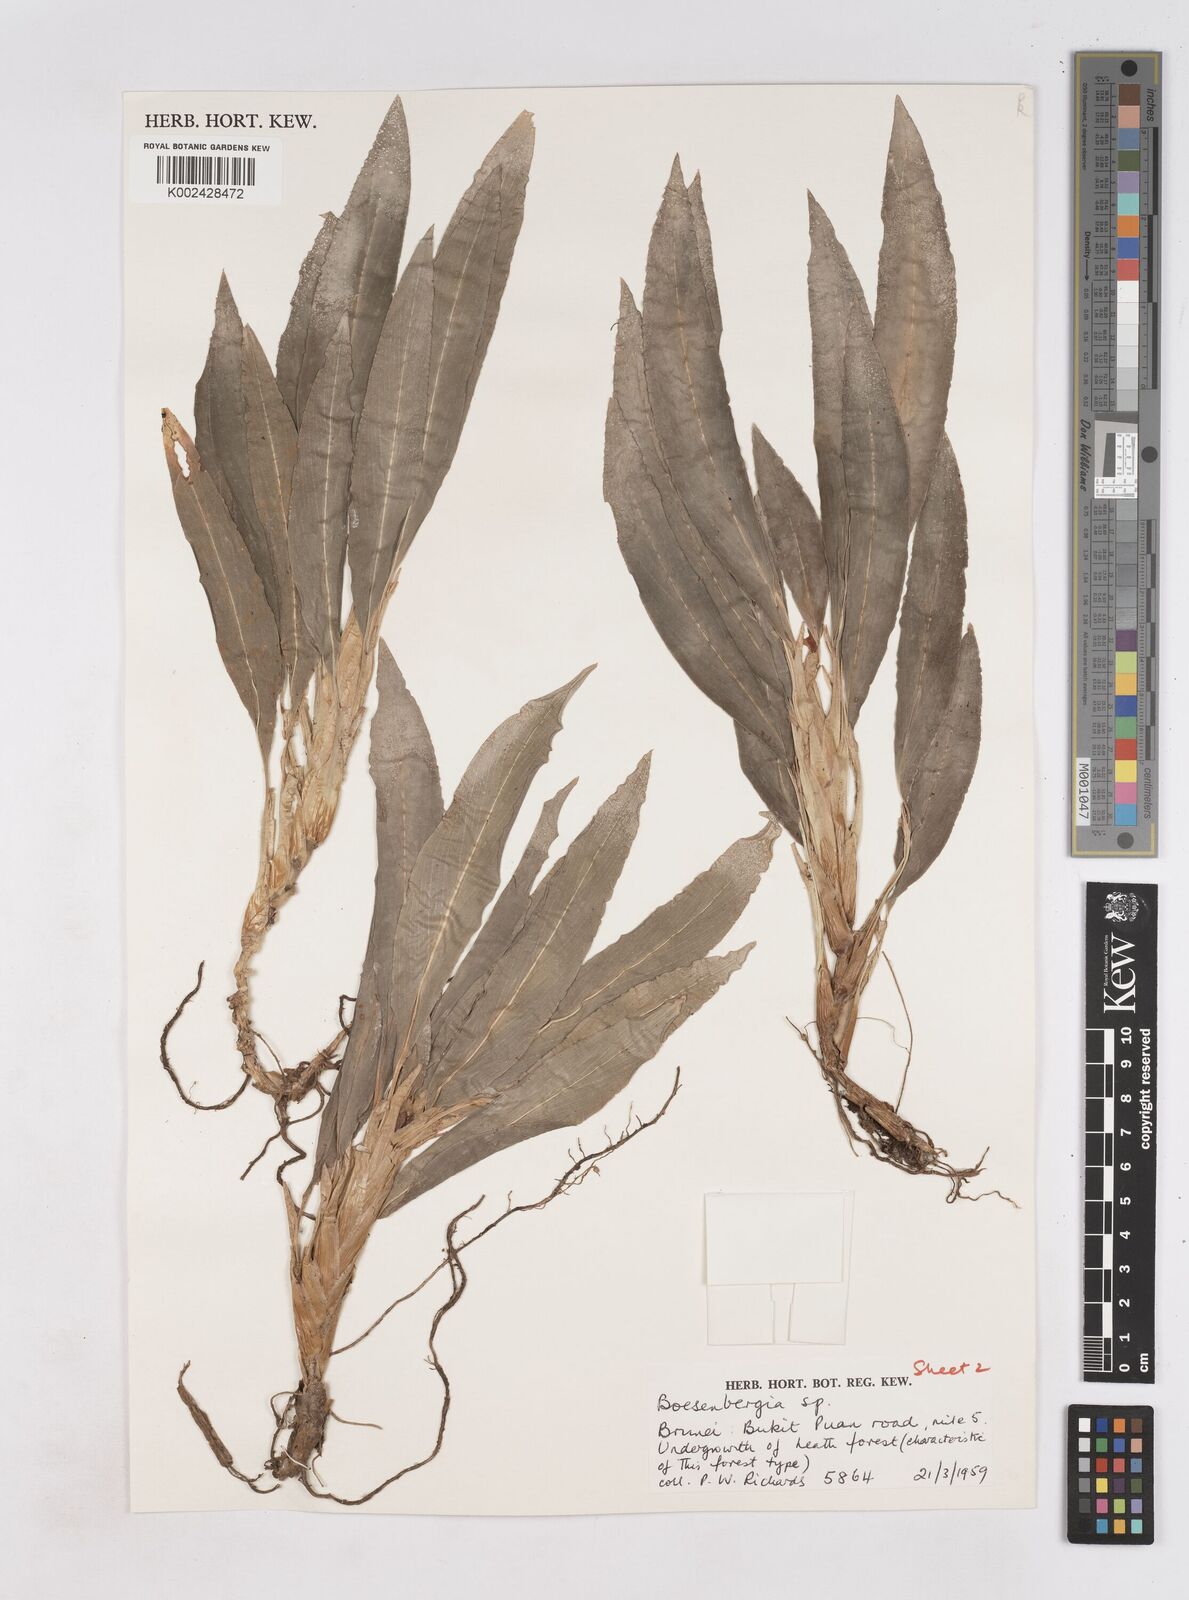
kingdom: Plantae
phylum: Tracheophyta
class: Liliopsida
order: Zingiberales
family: Zingiberaceae
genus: Boesenbergia
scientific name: Boesenbergia
